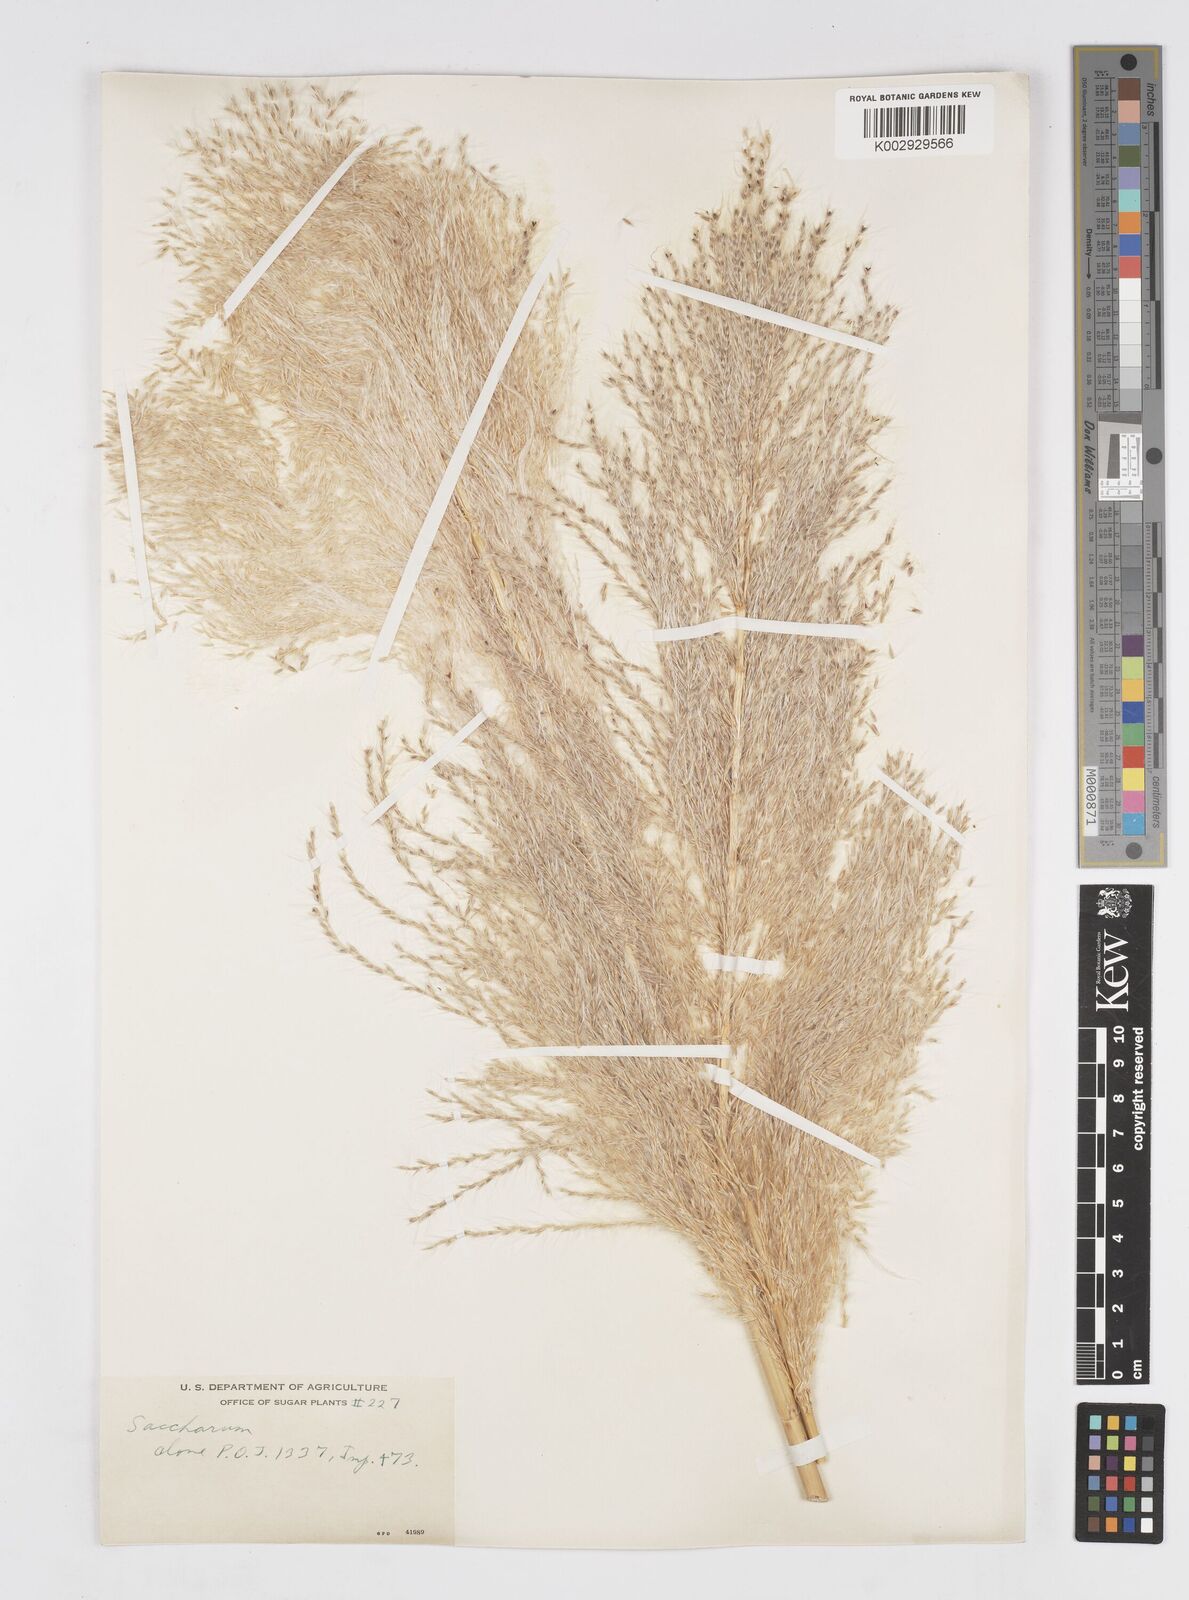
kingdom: Plantae
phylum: Tracheophyta
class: Liliopsida
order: Poales
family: Poaceae
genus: Saccharum
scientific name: Saccharum officinarum
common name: Sugarcane
